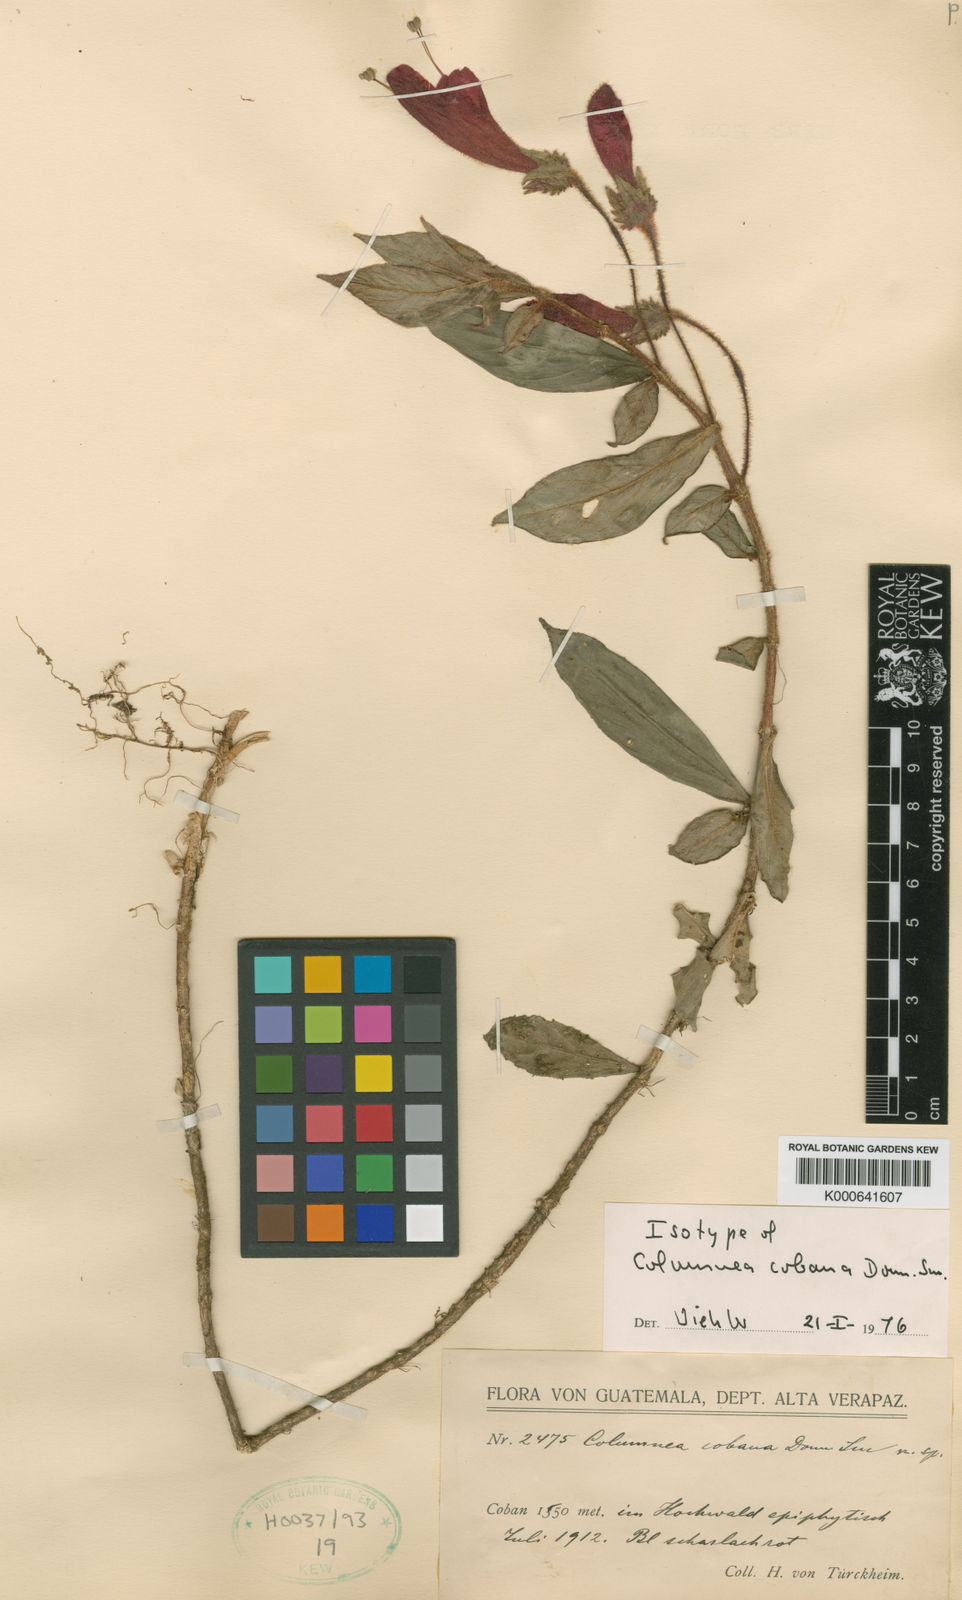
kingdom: Plantae
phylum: Tracheophyta
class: Magnoliopsida
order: Lamiales
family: Gesneriaceae
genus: Columnea
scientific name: Columnea cobana
